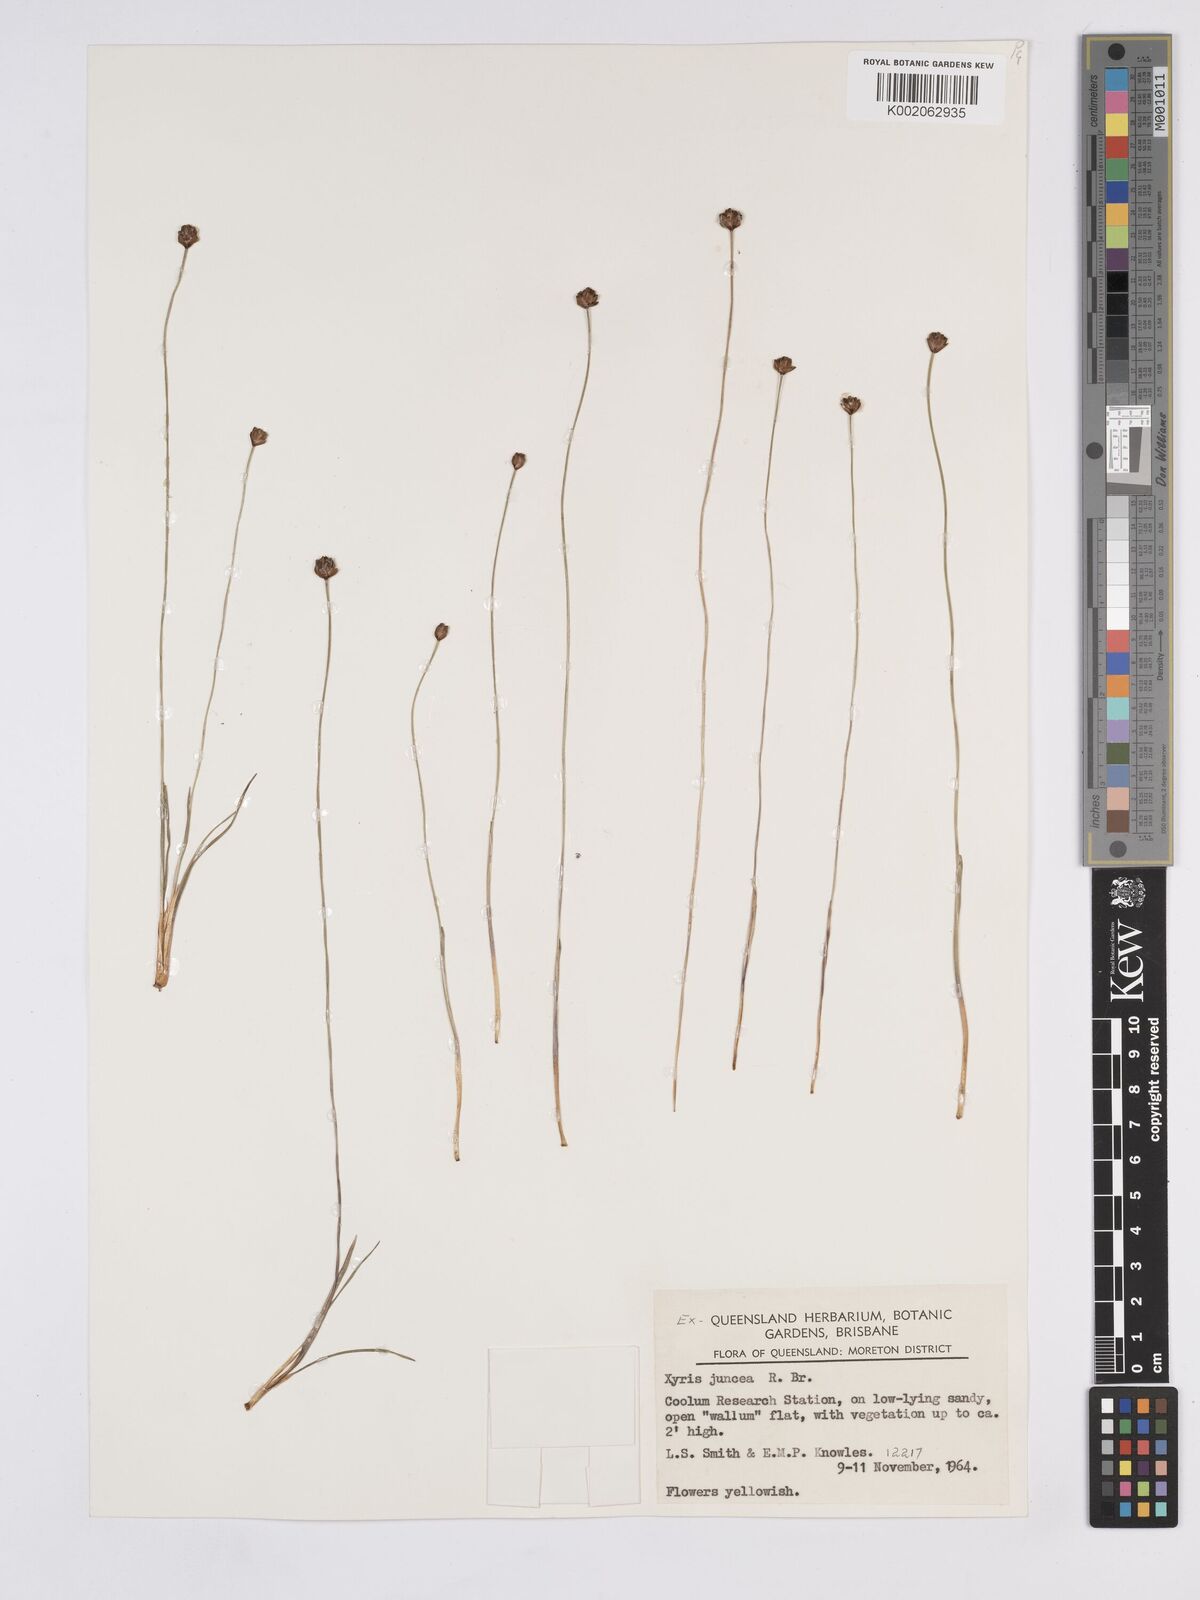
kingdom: Plantae
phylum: Tracheophyta
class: Liliopsida
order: Poales
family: Xyridaceae
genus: Xyris
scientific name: Xyris juncea
